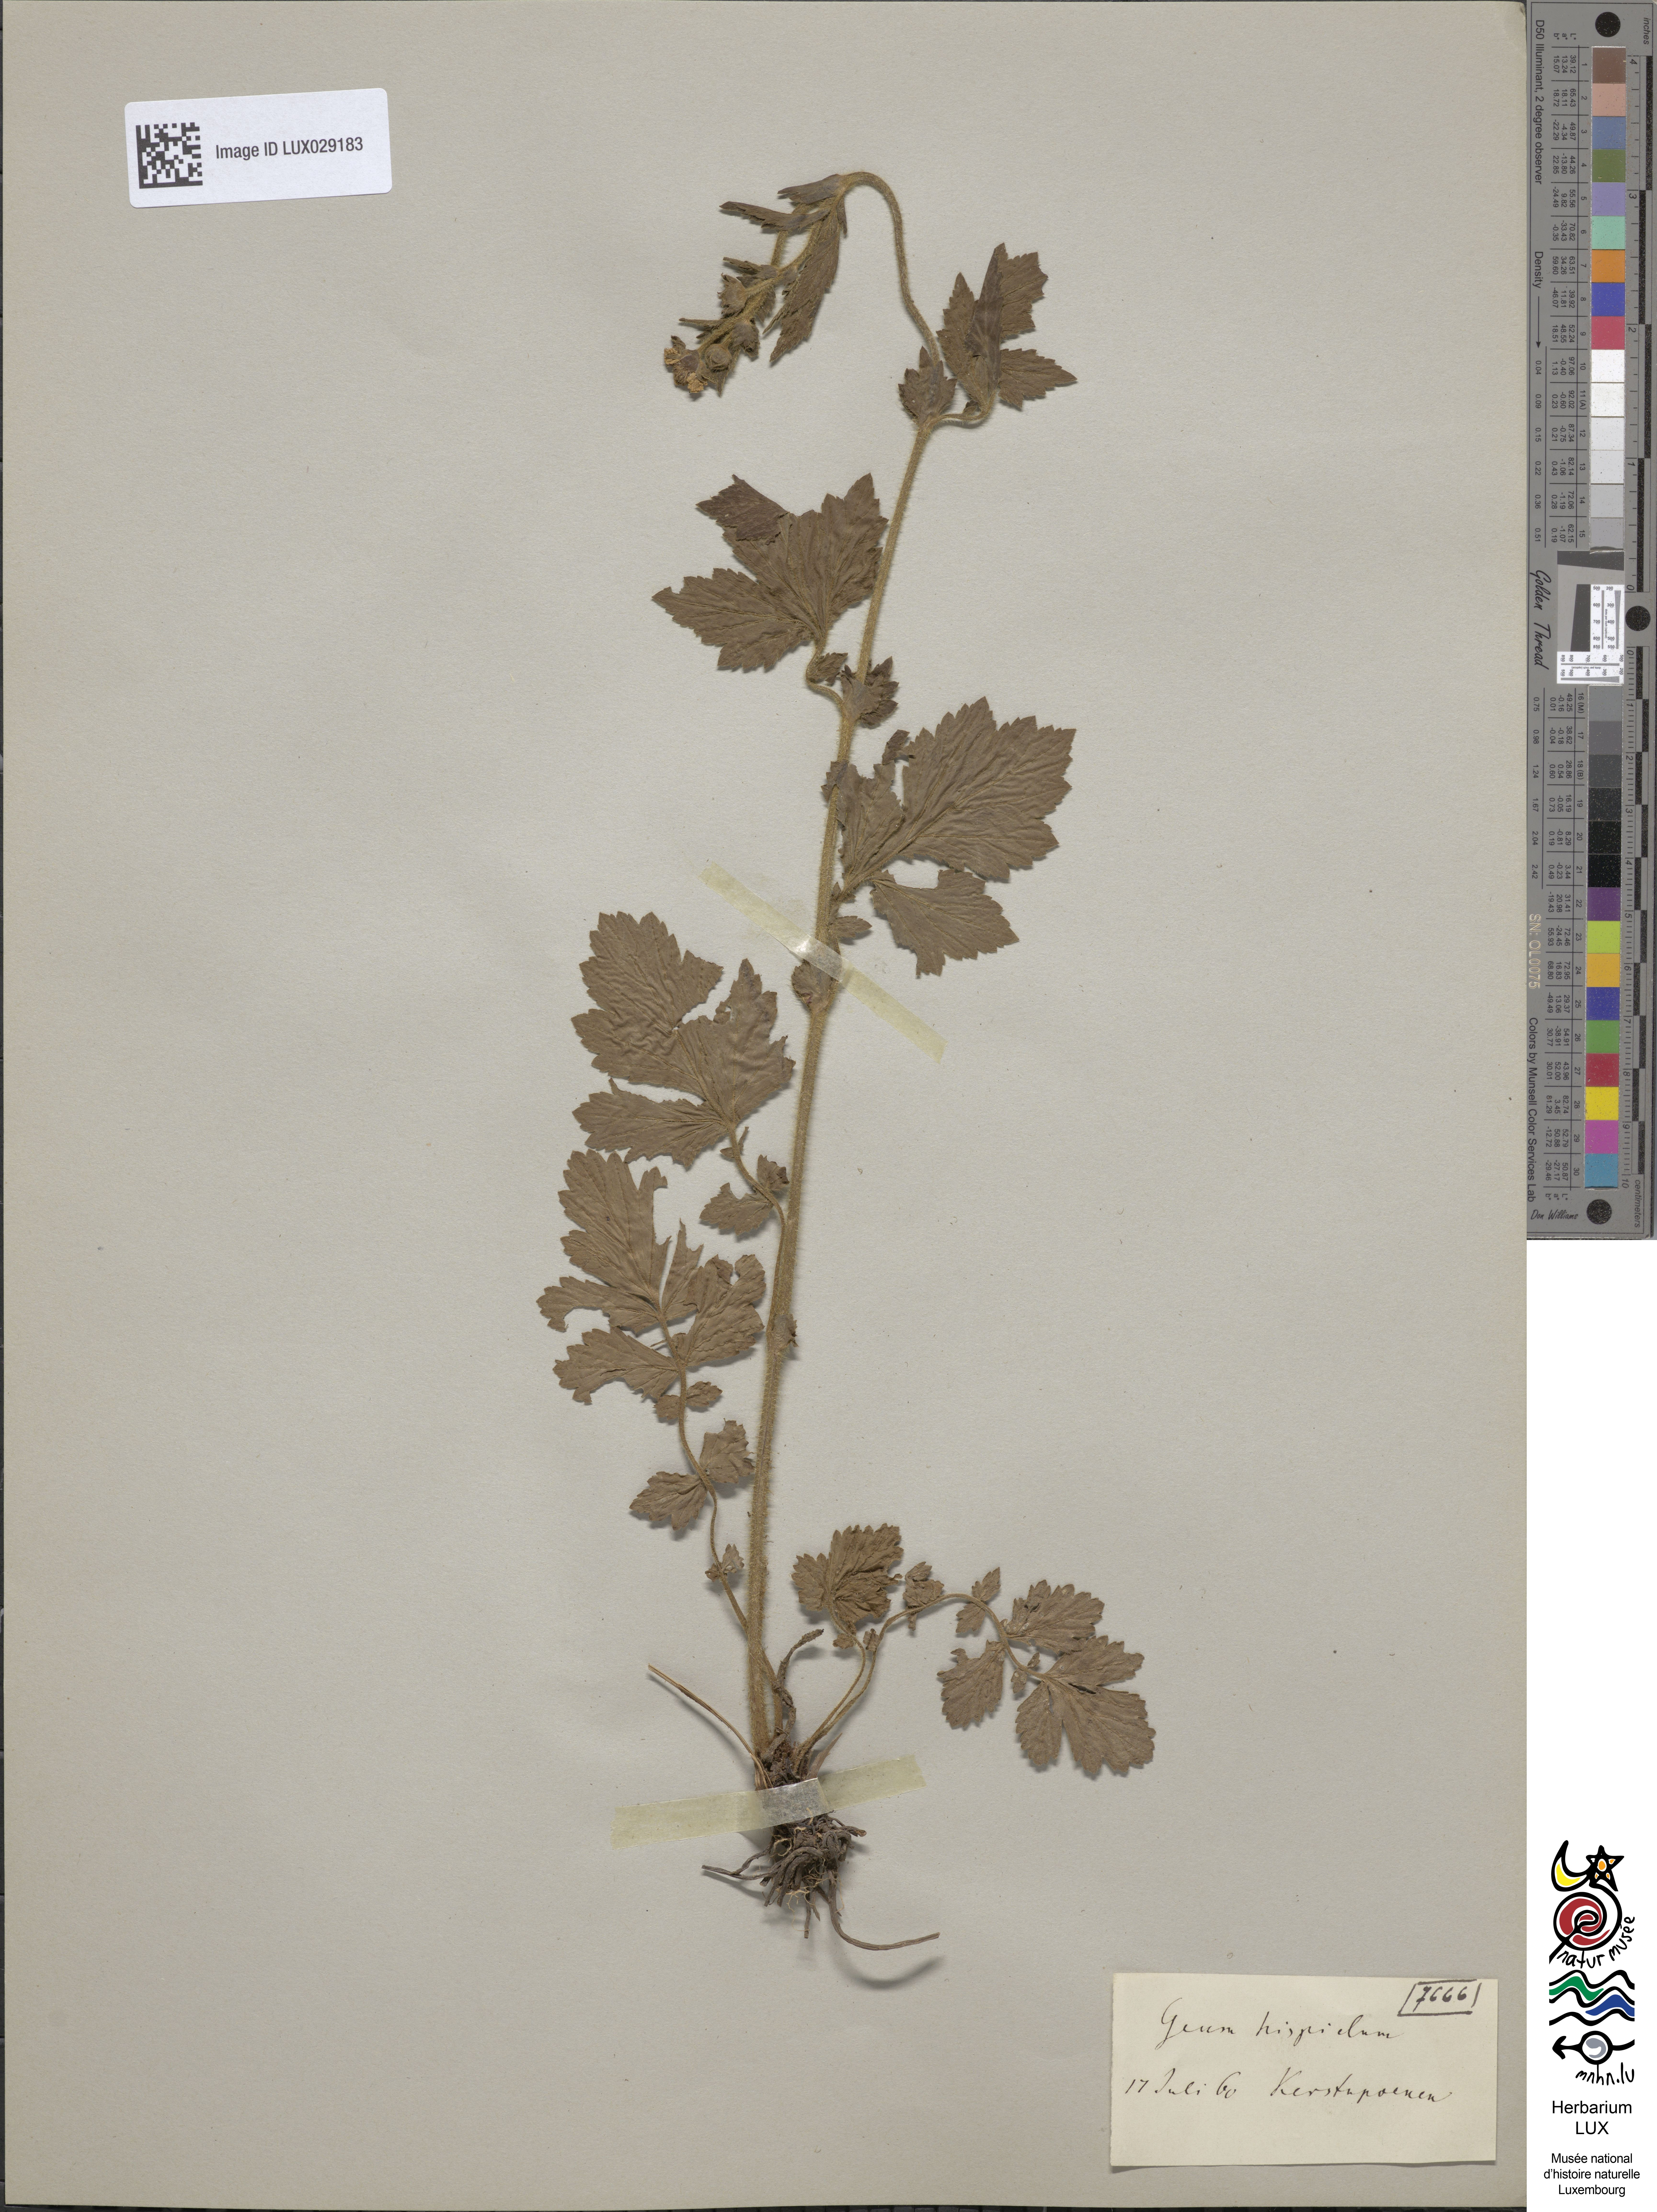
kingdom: Plantae
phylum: Tracheophyta
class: Magnoliopsida
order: Rosales
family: Rosaceae
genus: Geum
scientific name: Geum hispidum
